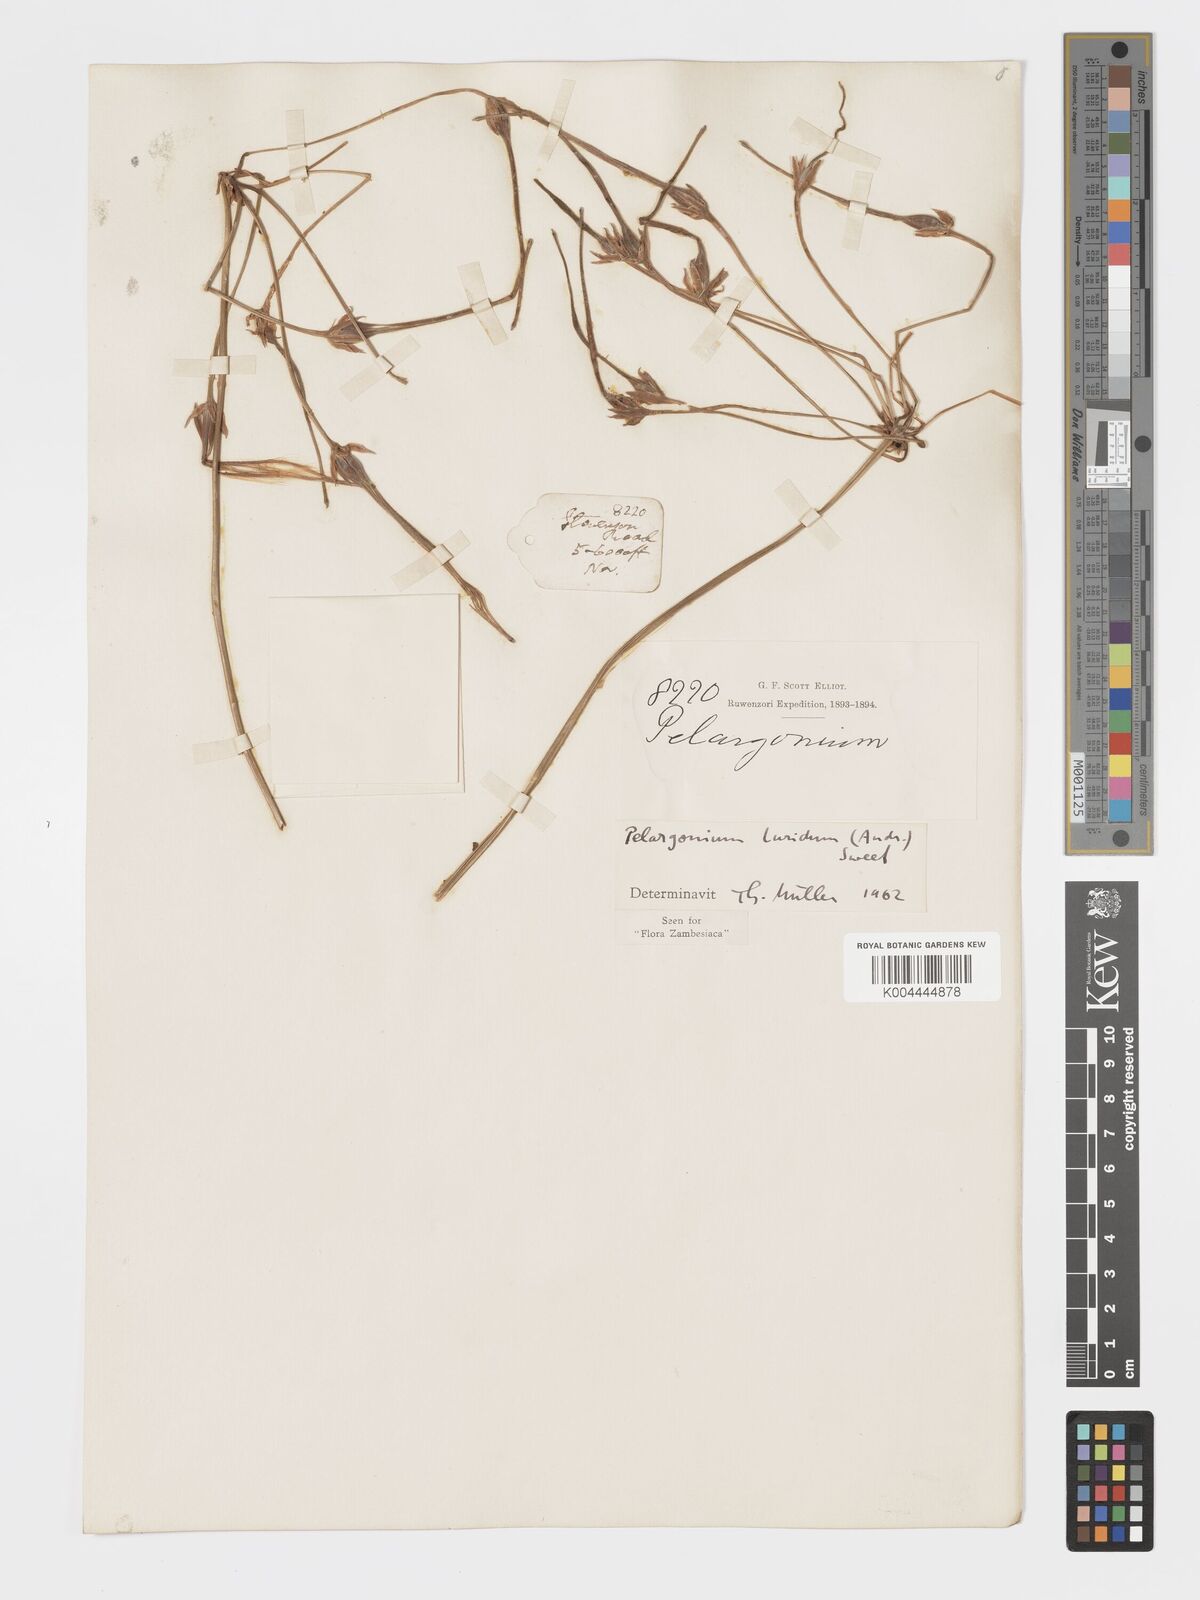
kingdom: Plantae
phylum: Tracheophyta
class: Magnoliopsida
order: Geraniales
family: Geraniaceae
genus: Pelargonium
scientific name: Pelargonium luridum
